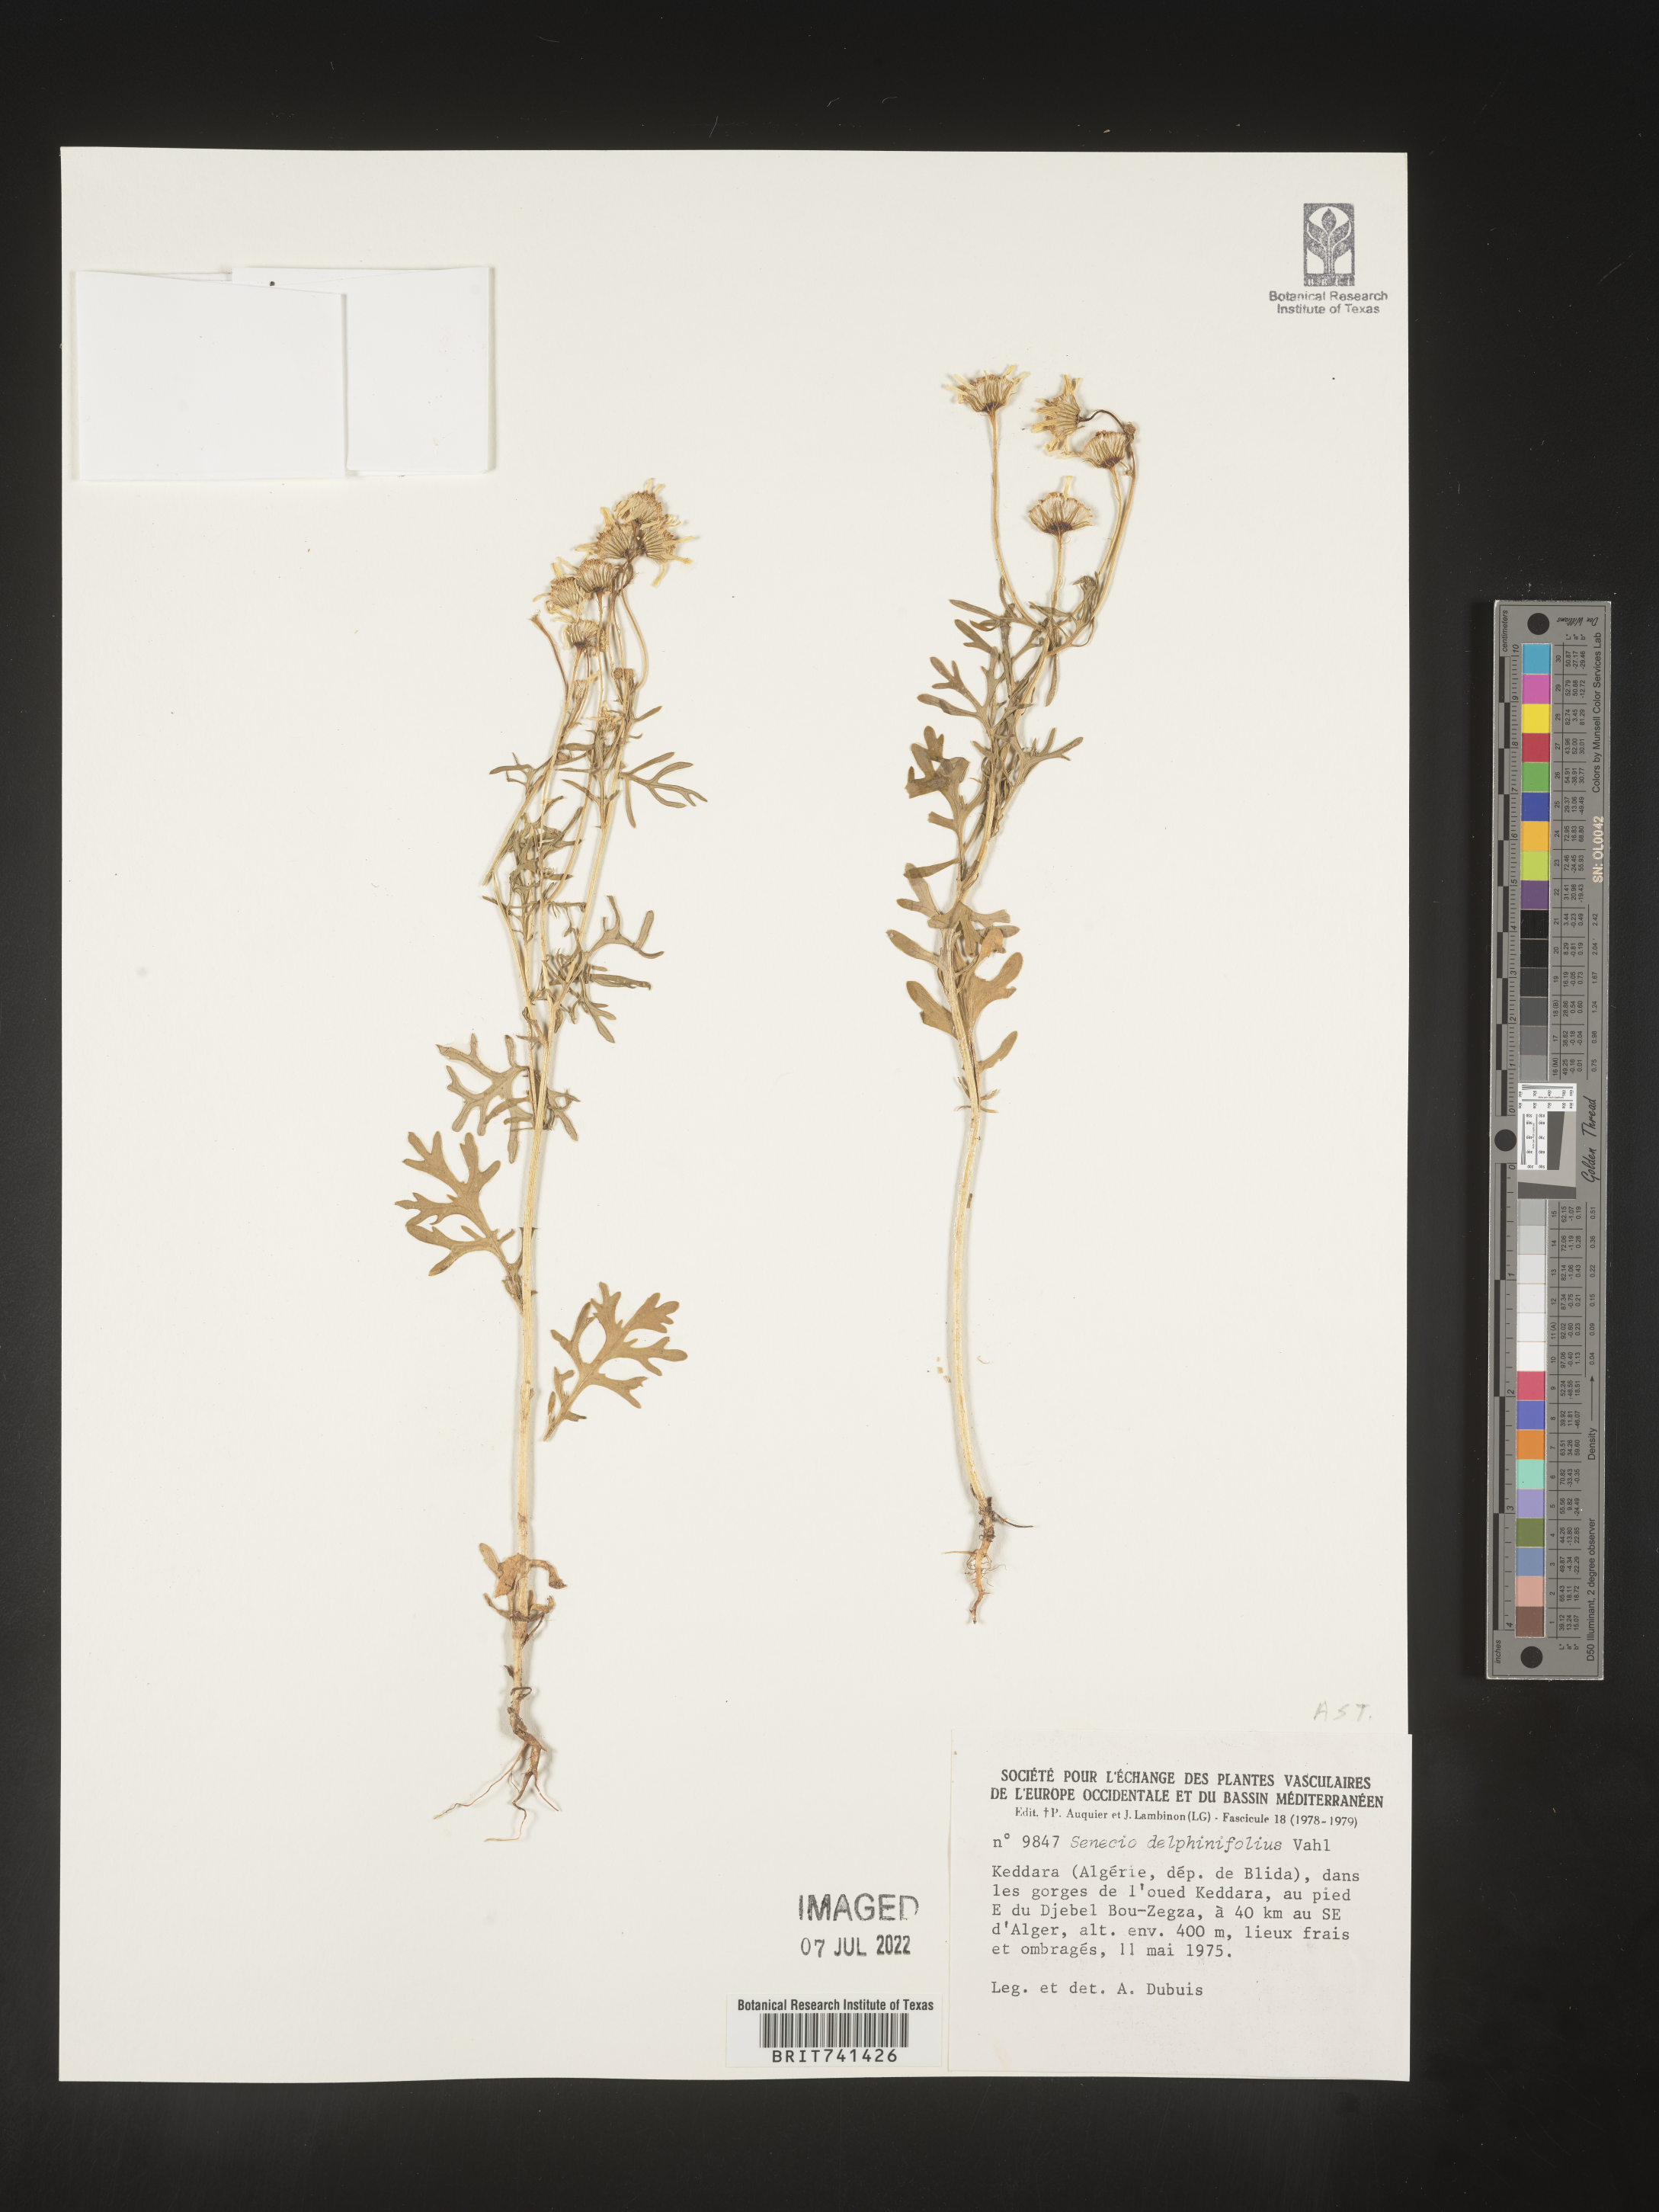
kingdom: Plantae
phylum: Tracheophyta
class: Magnoliopsida
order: Asterales
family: Asteraceae
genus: Senecio
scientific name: Senecio
